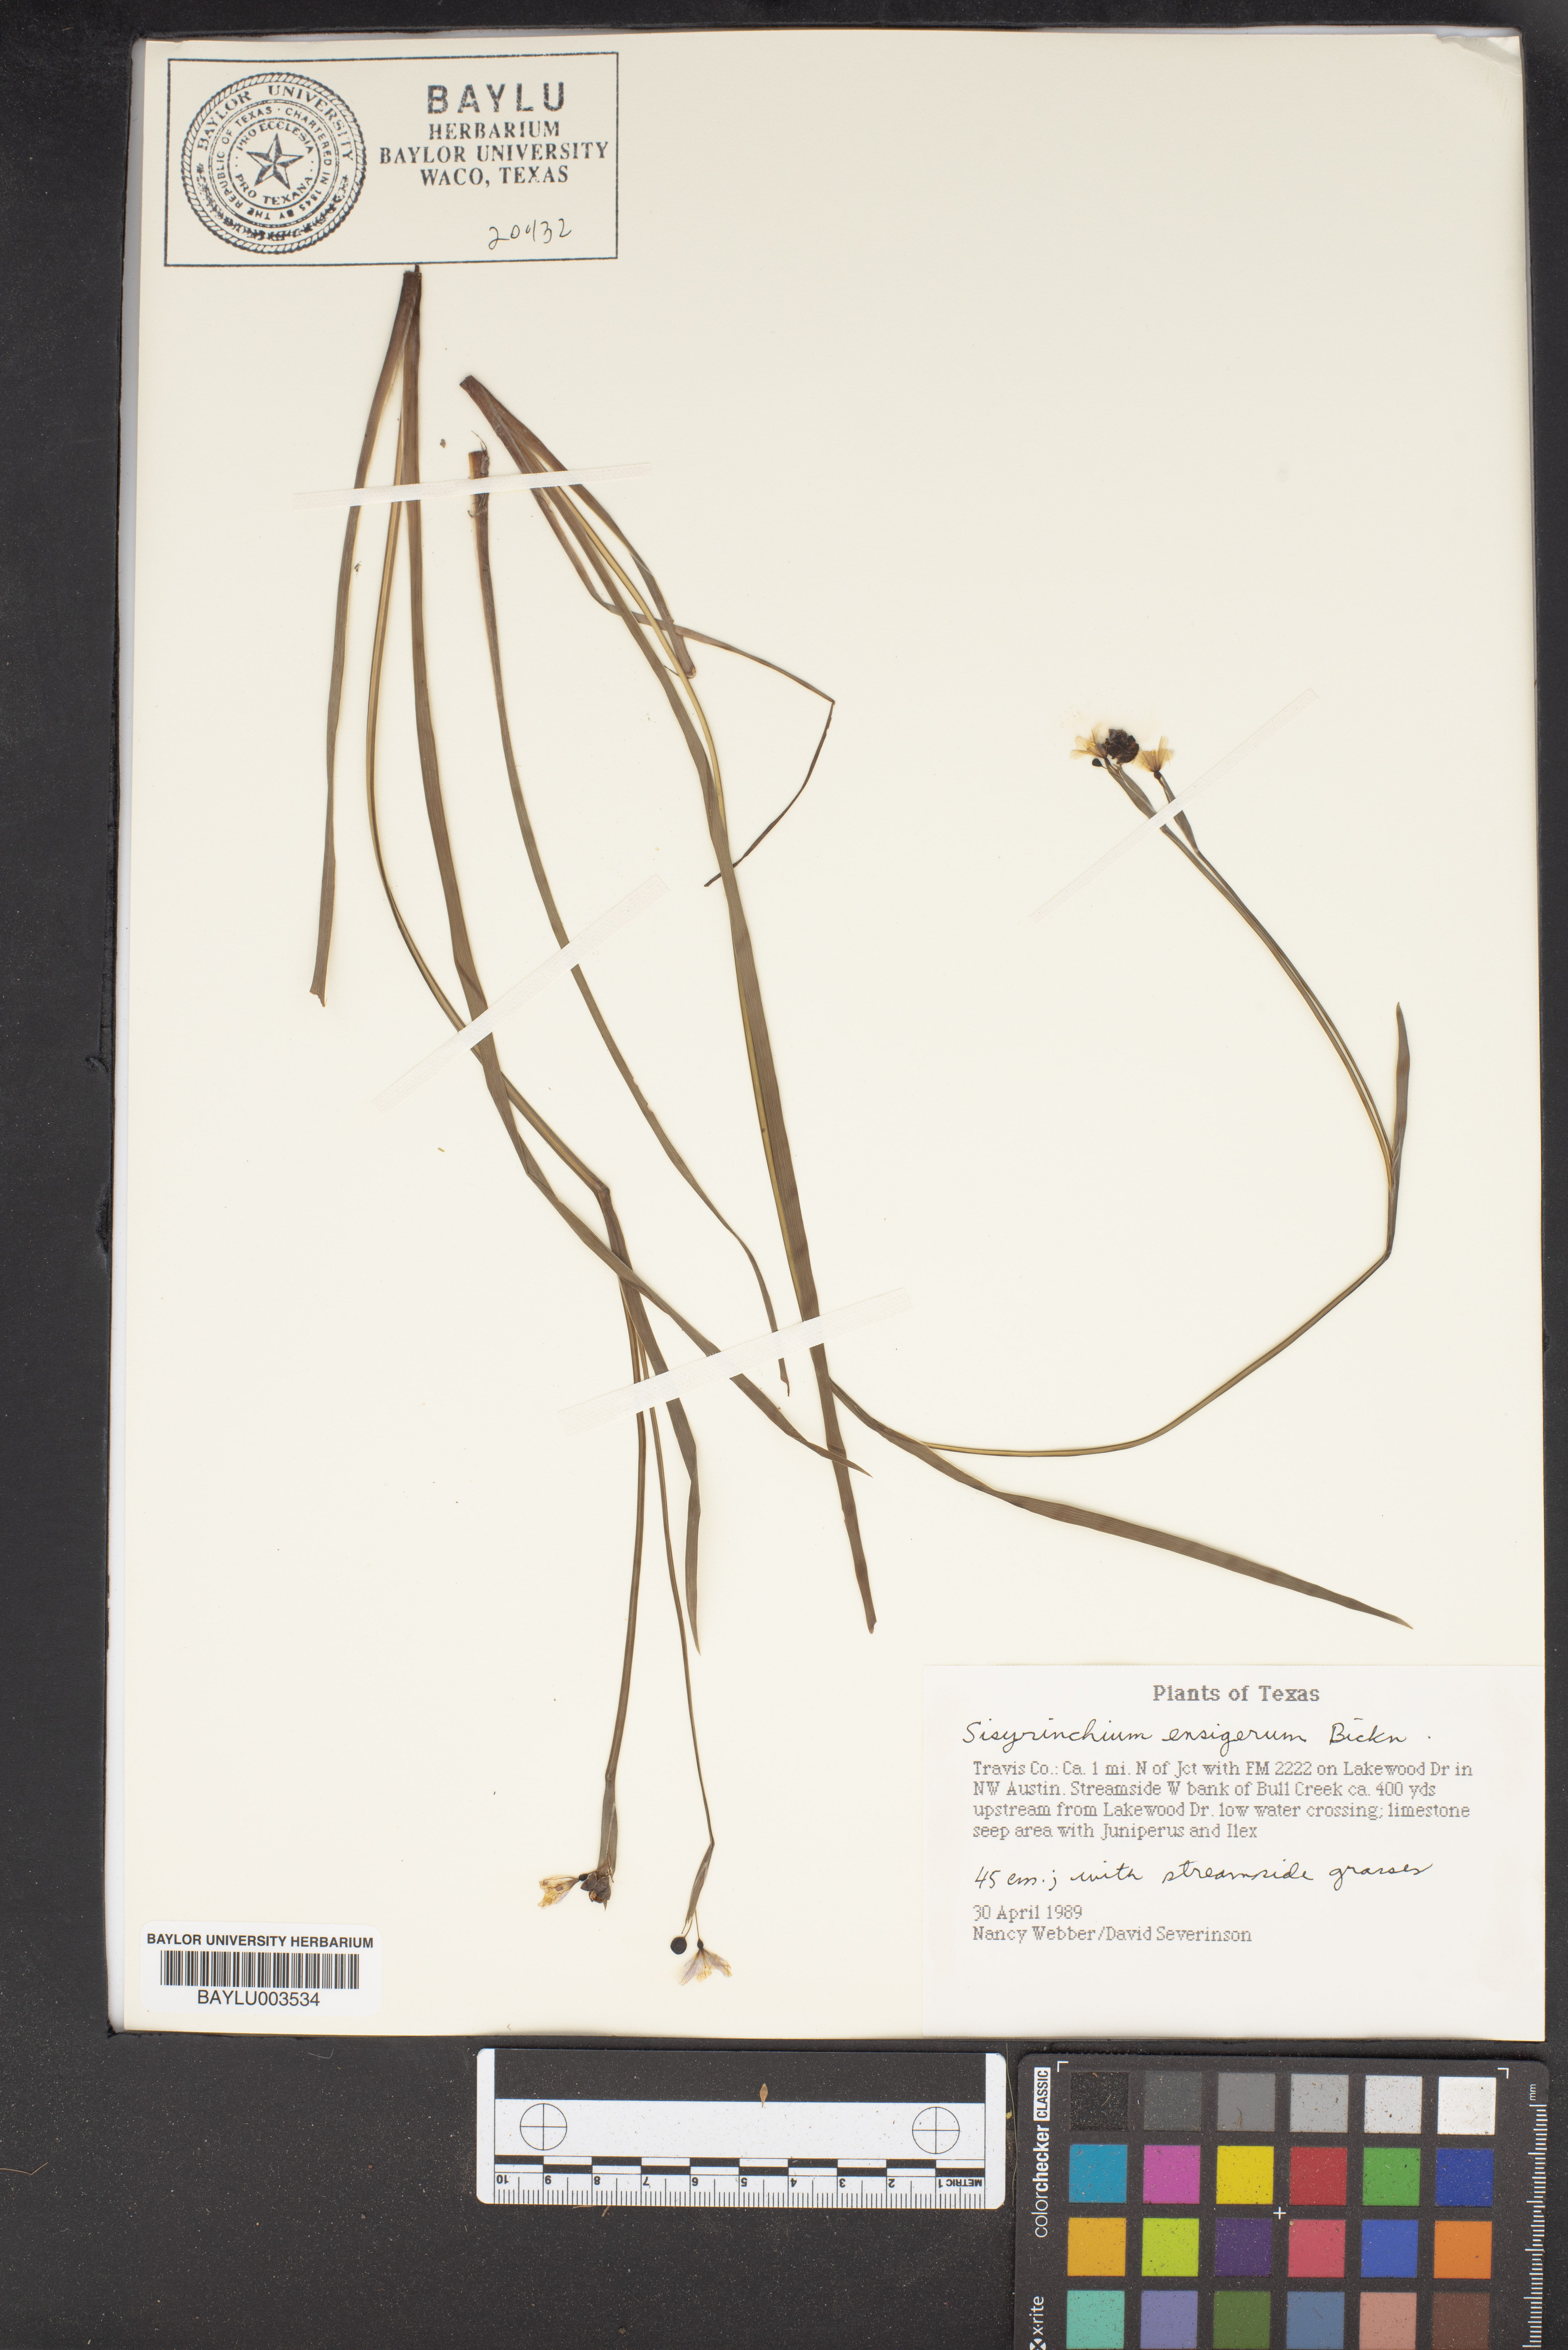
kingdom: Plantae
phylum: Tracheophyta
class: Liliopsida
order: Asparagales
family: Iridaceae
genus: Sisyrinchium
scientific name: Sisyrinchium ensigerum
